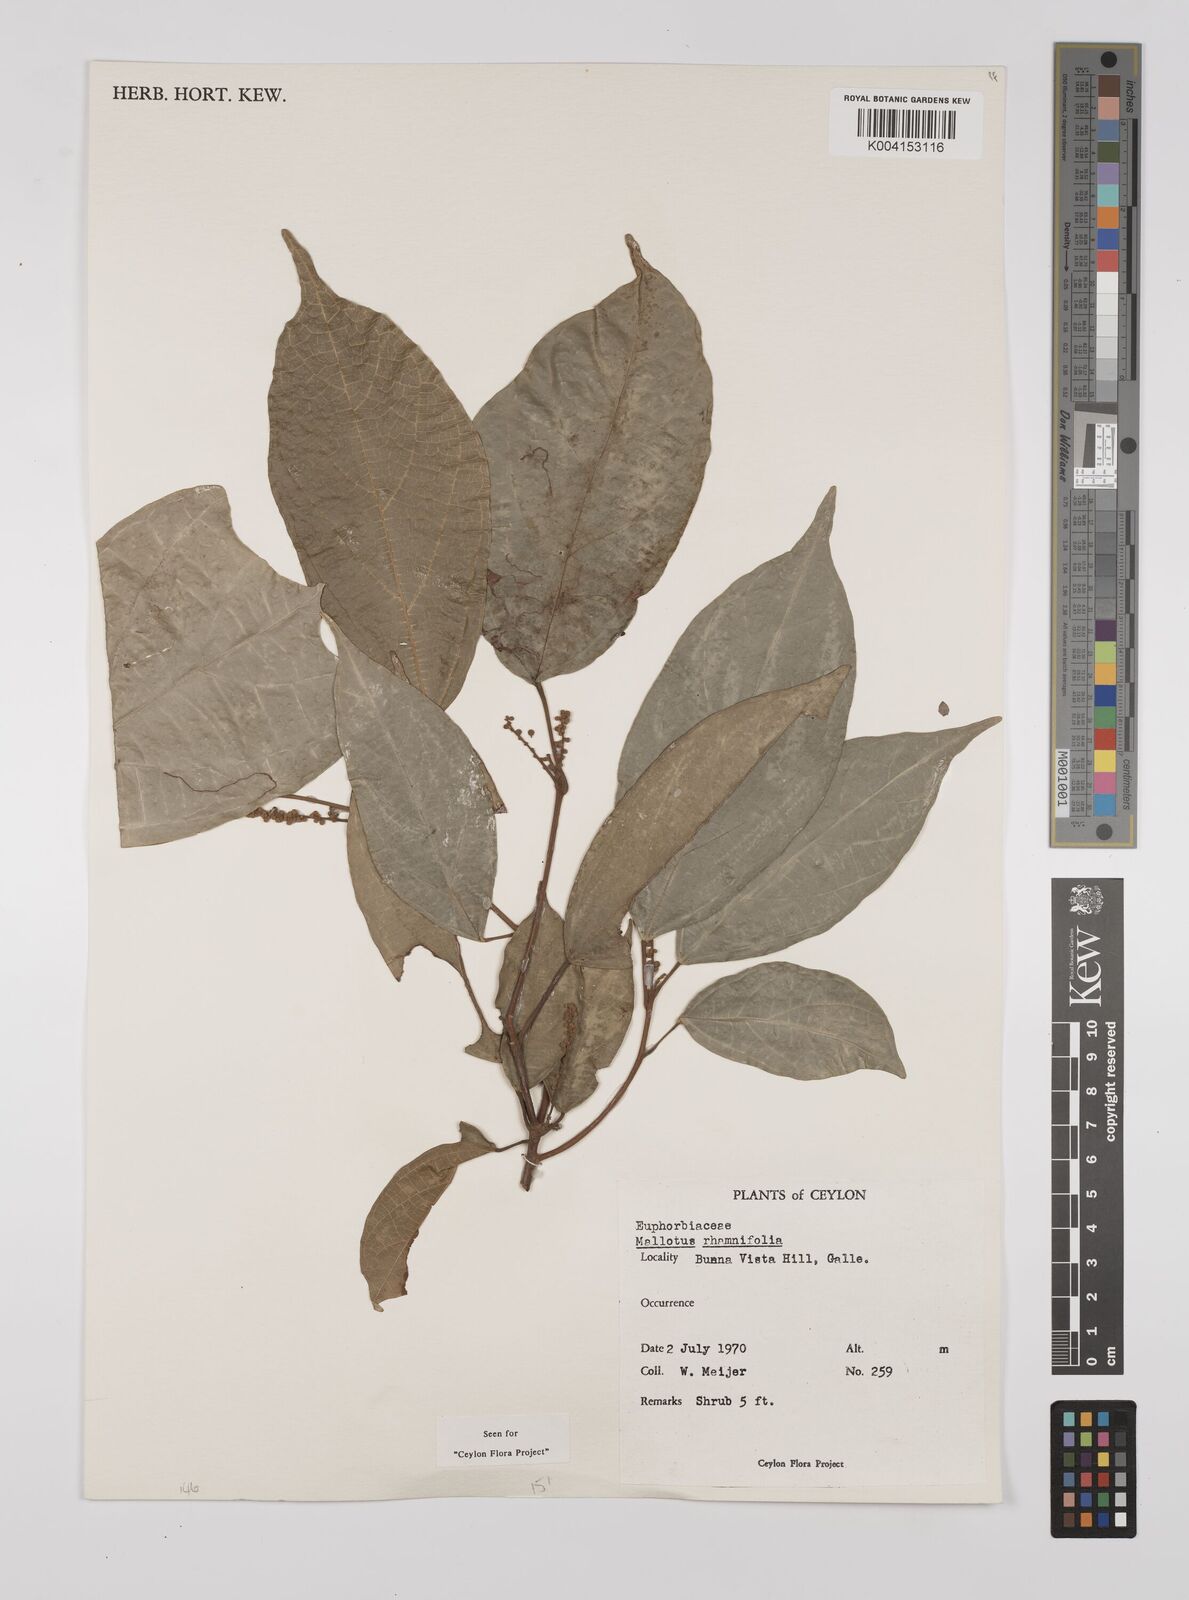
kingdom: Plantae
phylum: Tracheophyta
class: Magnoliopsida
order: Malpighiales
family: Euphorbiaceae
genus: Mallotus
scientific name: Mallotus rhamnifolius
